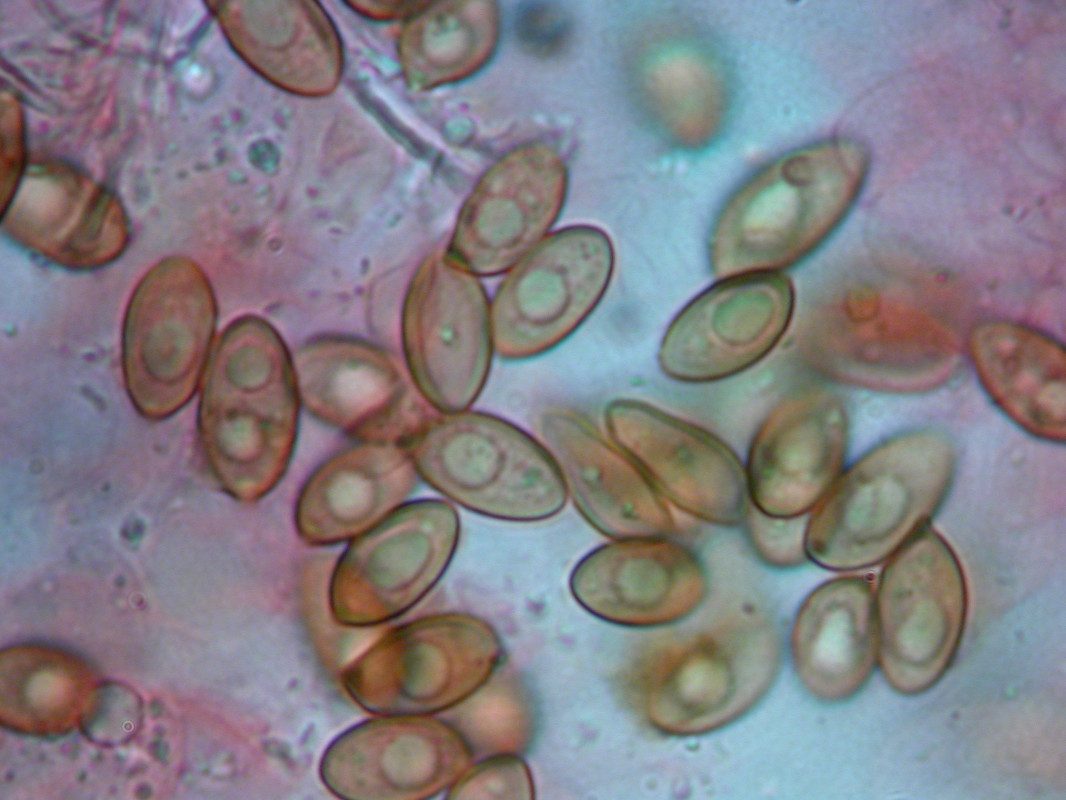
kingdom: Fungi
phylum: Basidiomycota
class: Agaricomycetes
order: Agaricales
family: Hymenogastraceae
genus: Galerina
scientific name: Galerina lacustris
